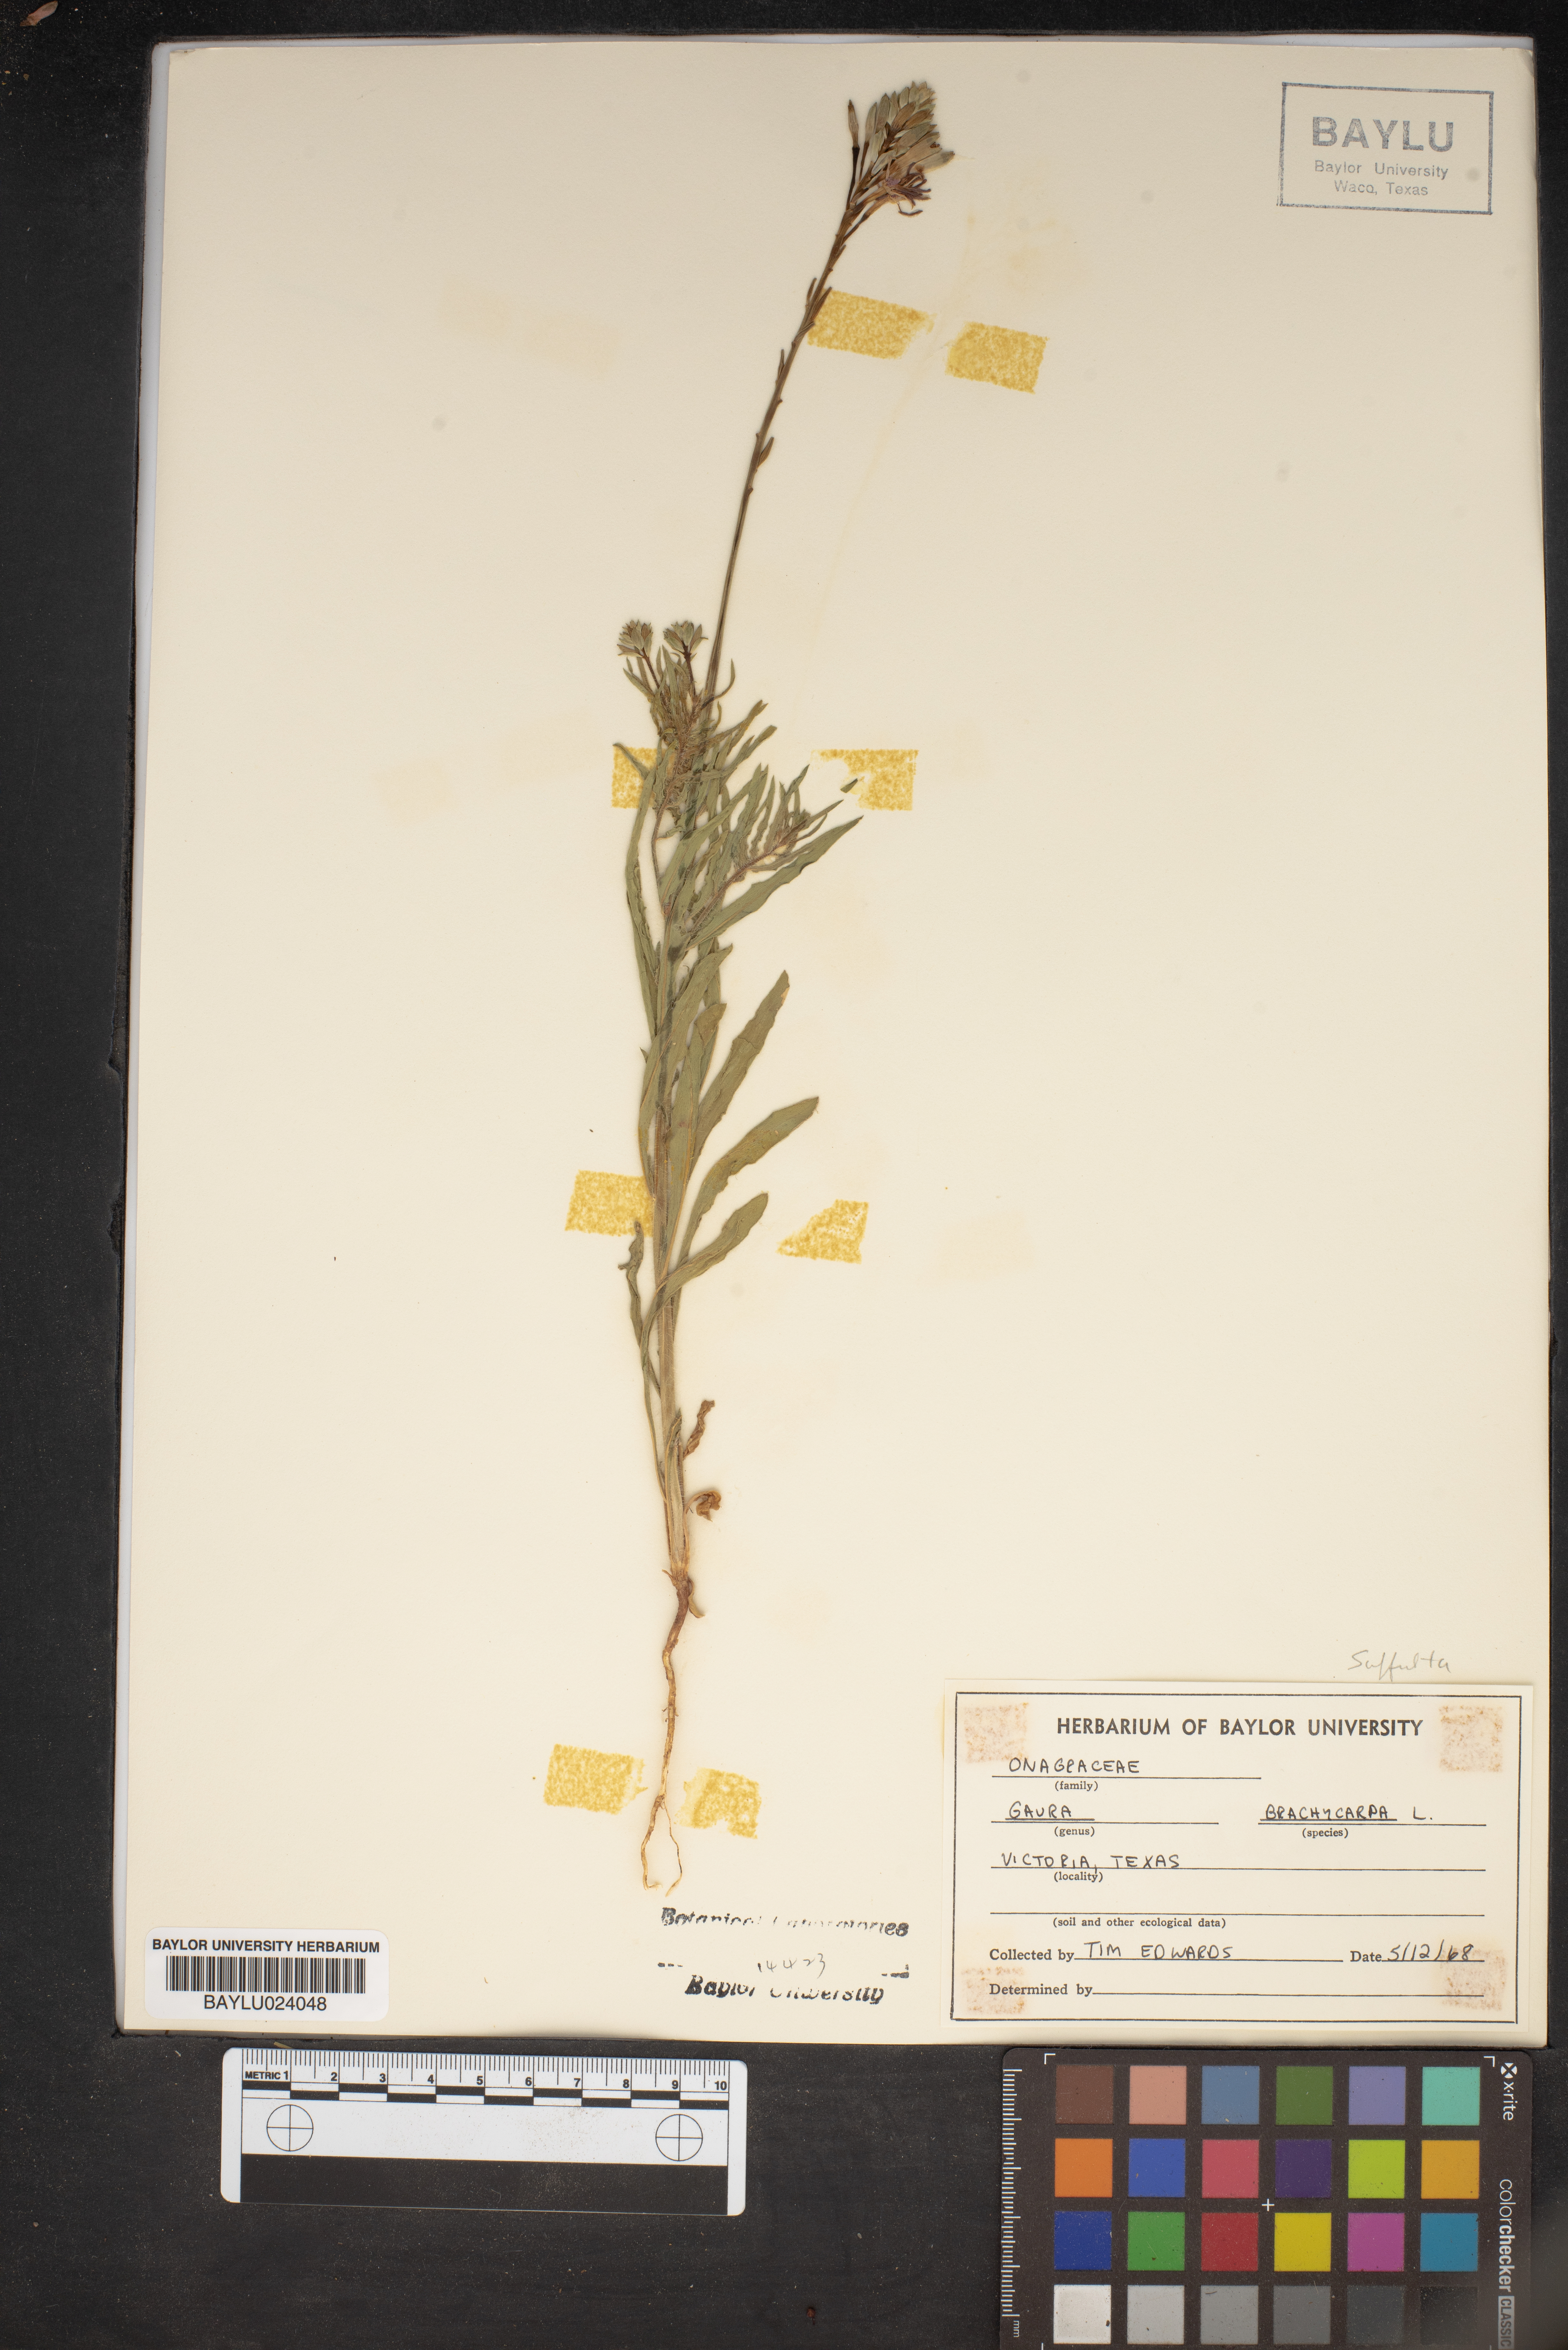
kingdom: Plantae
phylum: Tracheophyta
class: Magnoliopsida
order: Myrtales
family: Onagraceae
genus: Oenothera
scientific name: Oenothera patriciae
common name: Plains beeblossom
